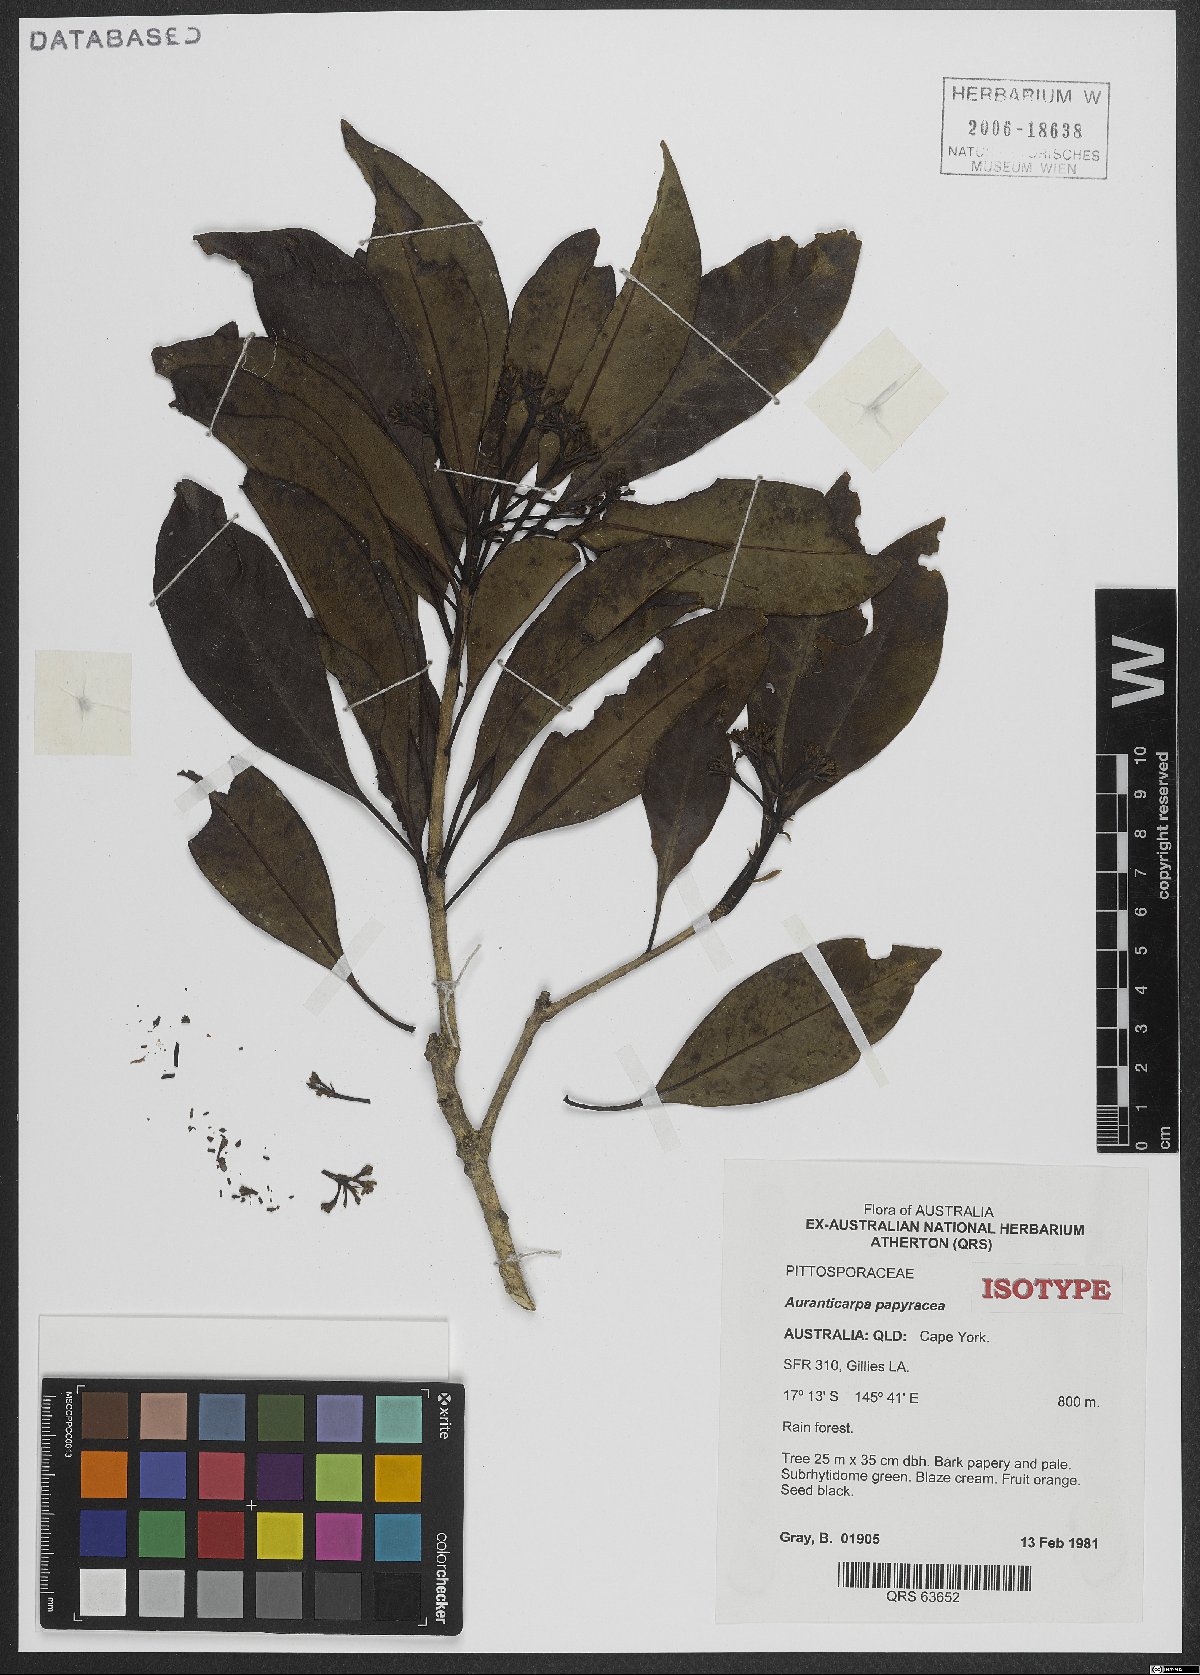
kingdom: Plantae
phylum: Tracheophyta
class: Magnoliopsida
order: Apiales
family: Pittosporaceae
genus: Auranticarpa
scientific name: Auranticarpa papyracea
